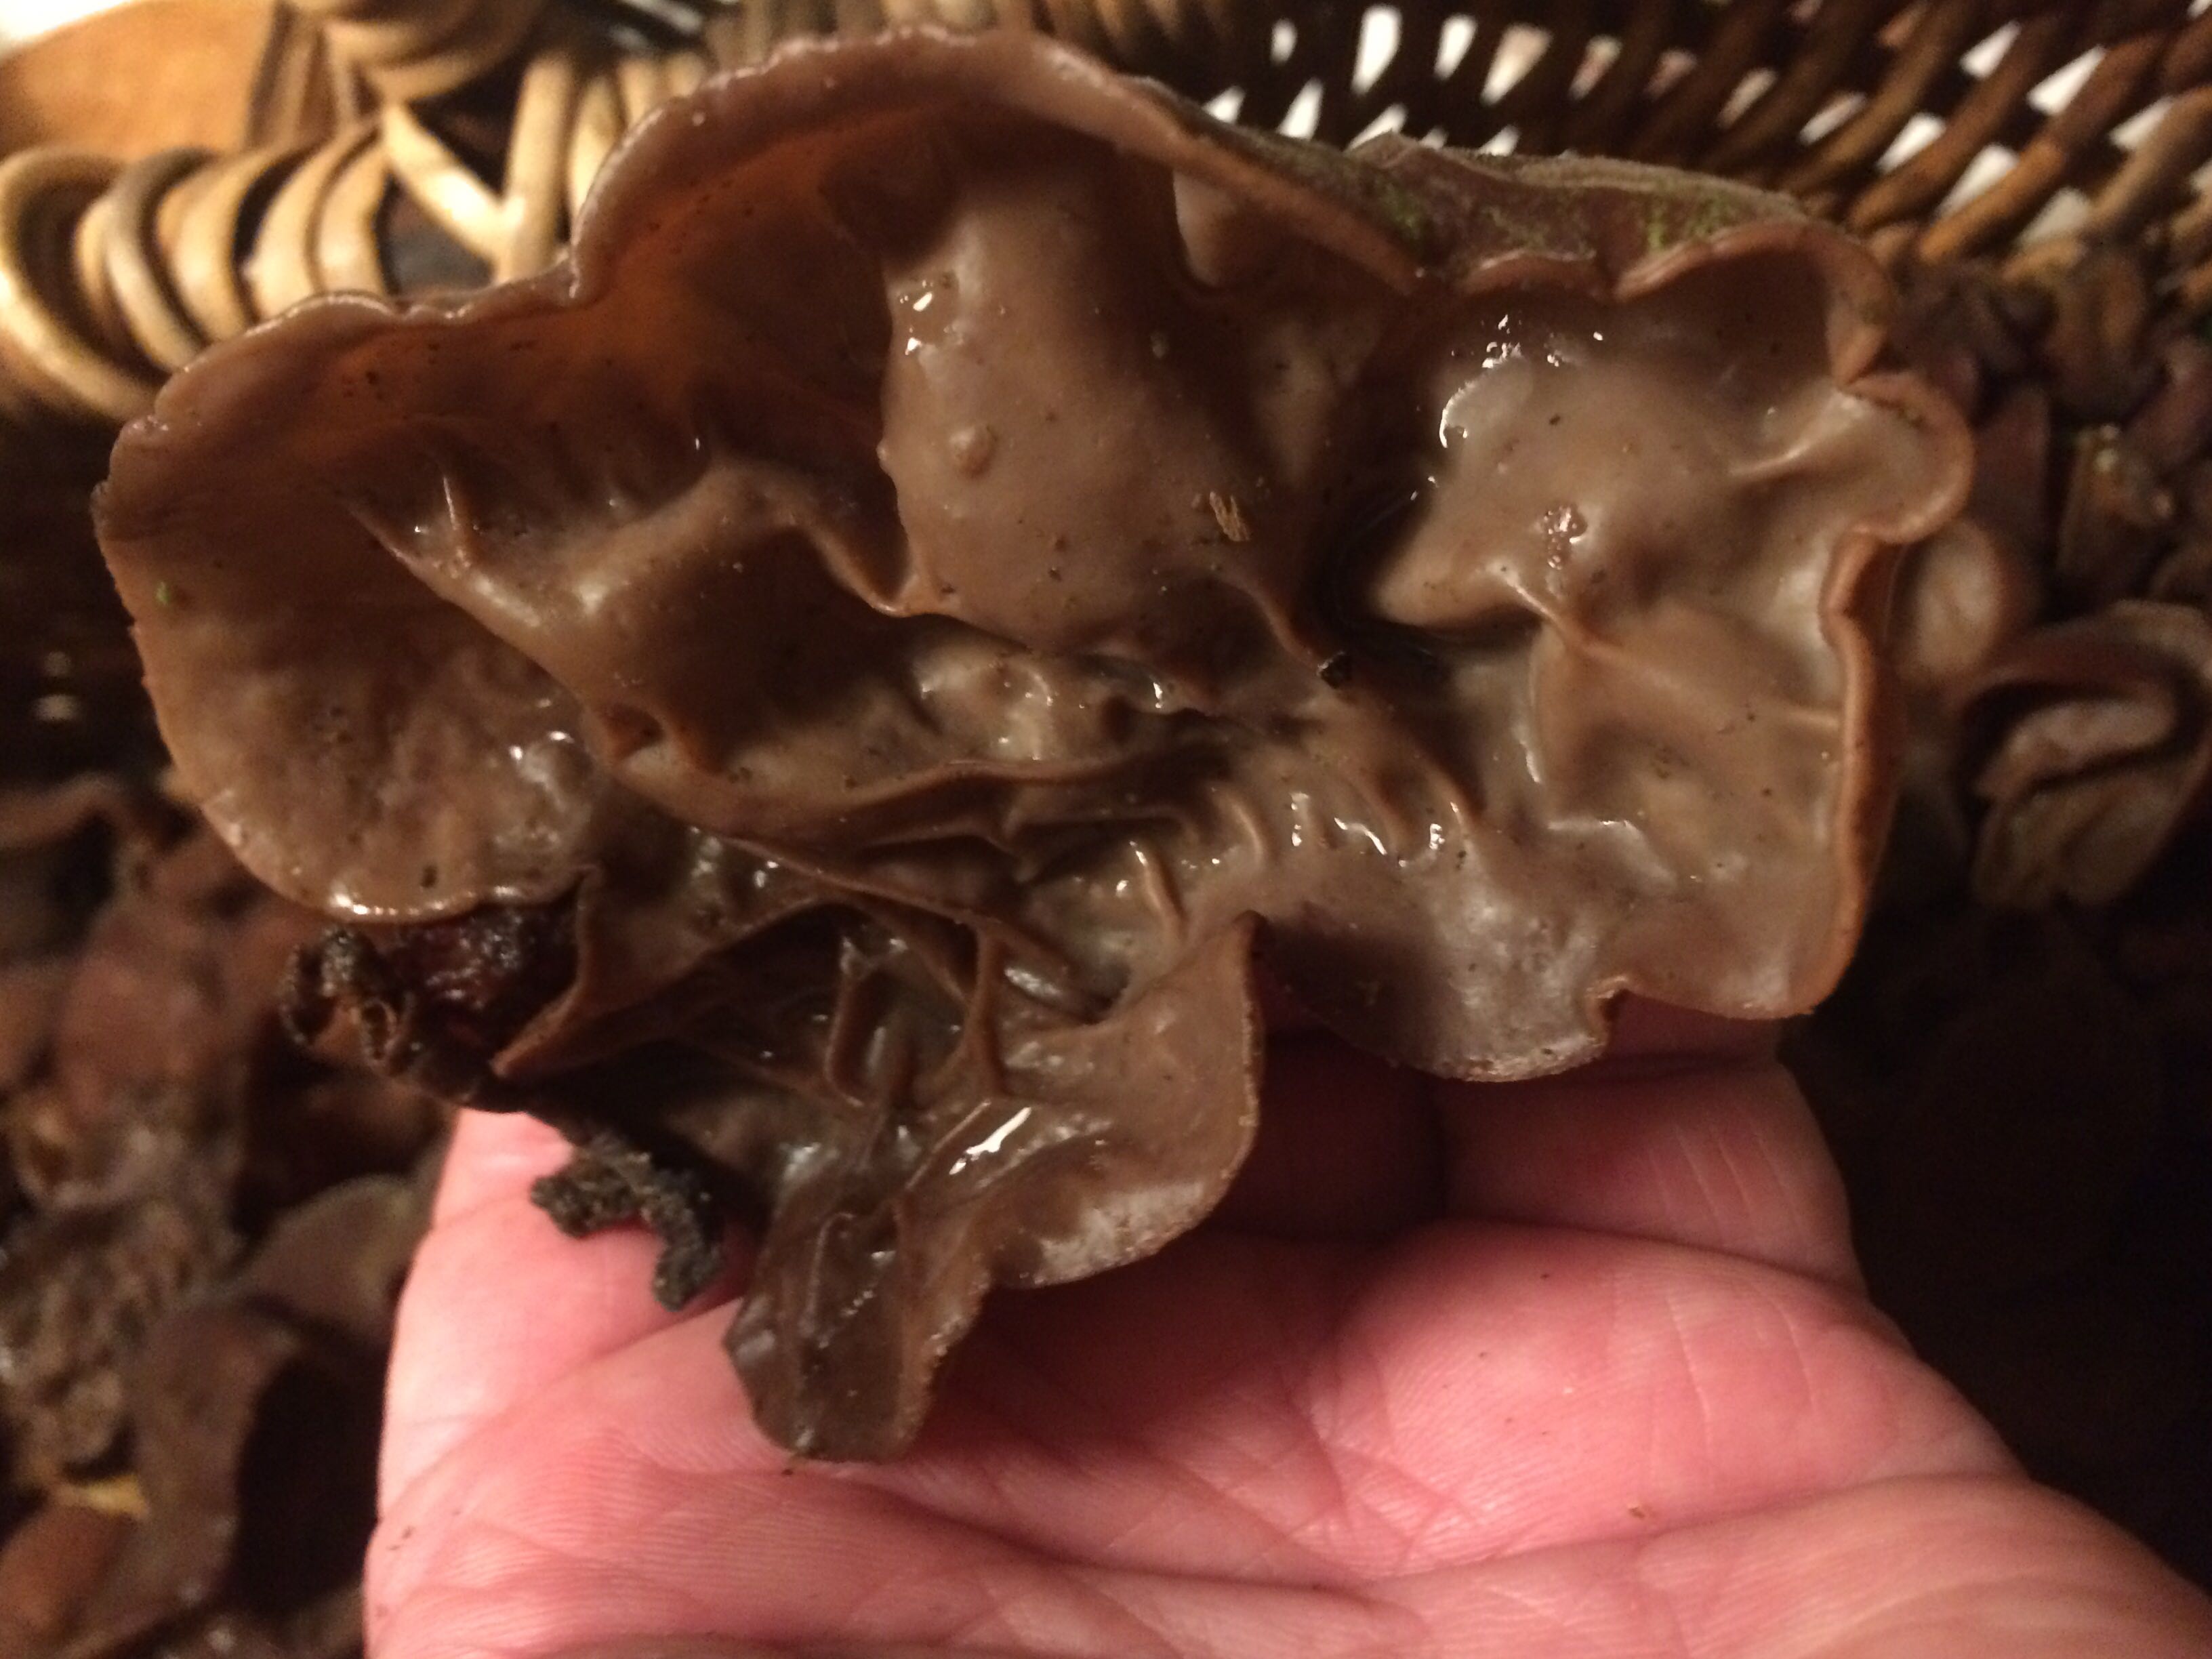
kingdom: Fungi
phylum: Basidiomycota
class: Agaricomycetes
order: Auriculariales
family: Auriculariaceae
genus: Auricularia
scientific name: Auricularia auricula-judae
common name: almindelig judasøre
